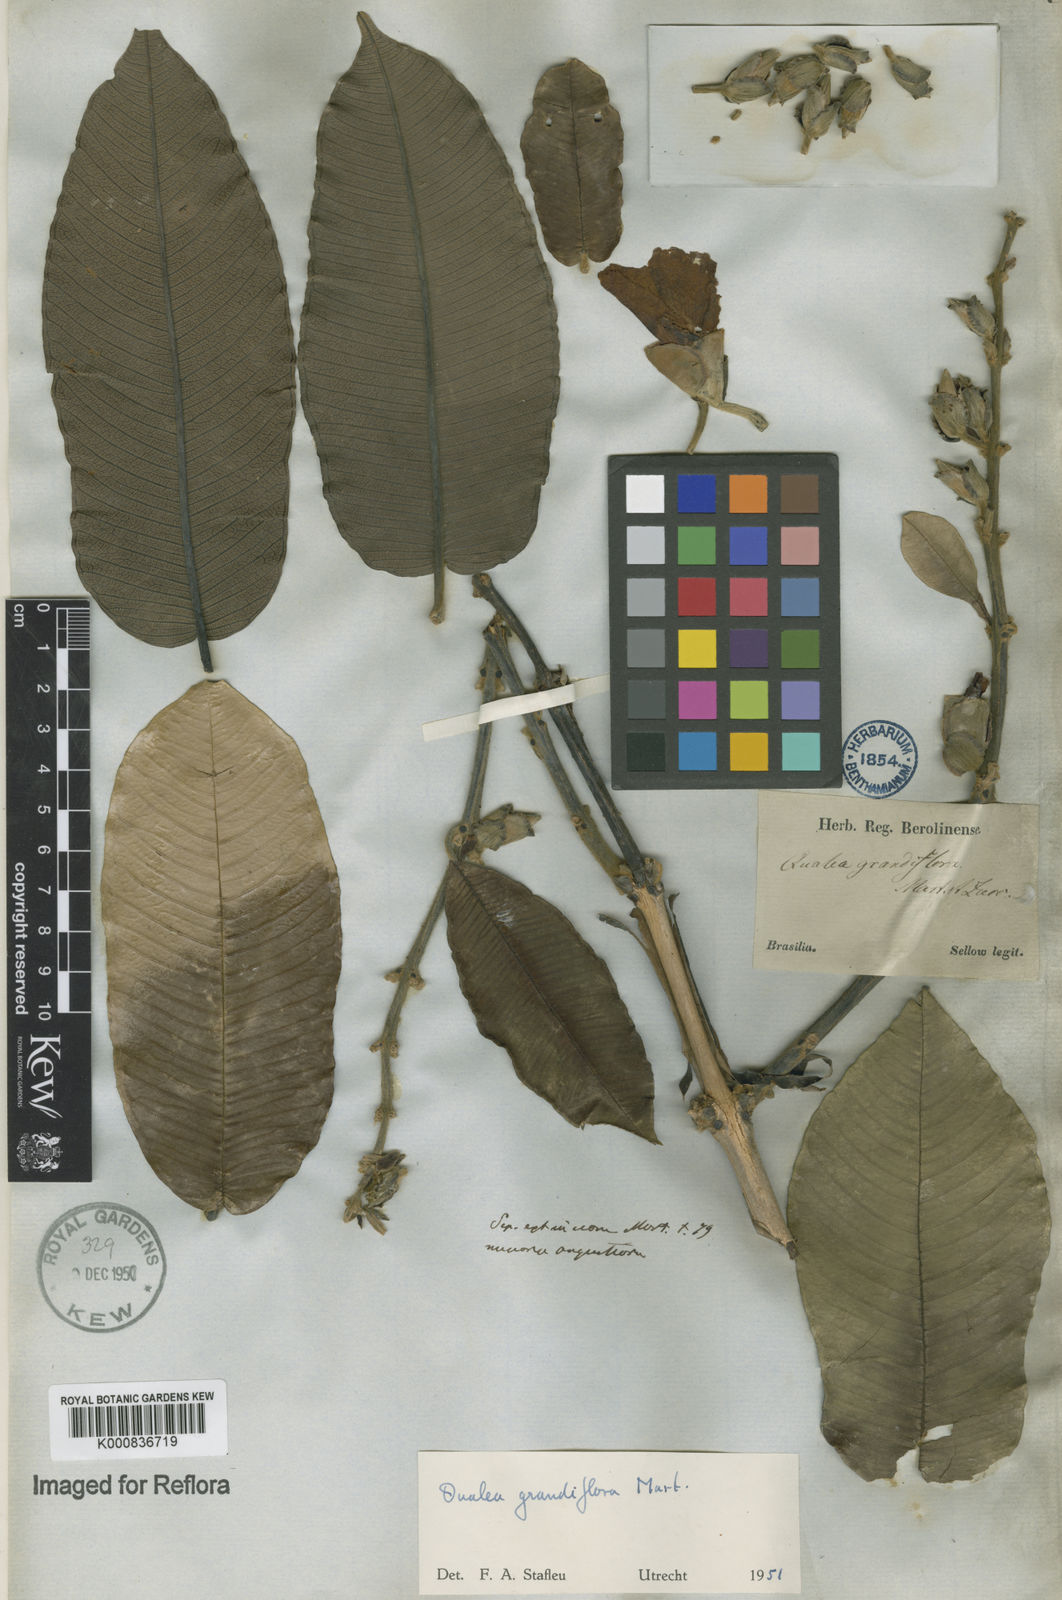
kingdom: Plantae
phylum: Tracheophyta
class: Magnoliopsida
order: Myrtales
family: Vochysiaceae
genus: Qualea
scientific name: Qualea grandiflora
